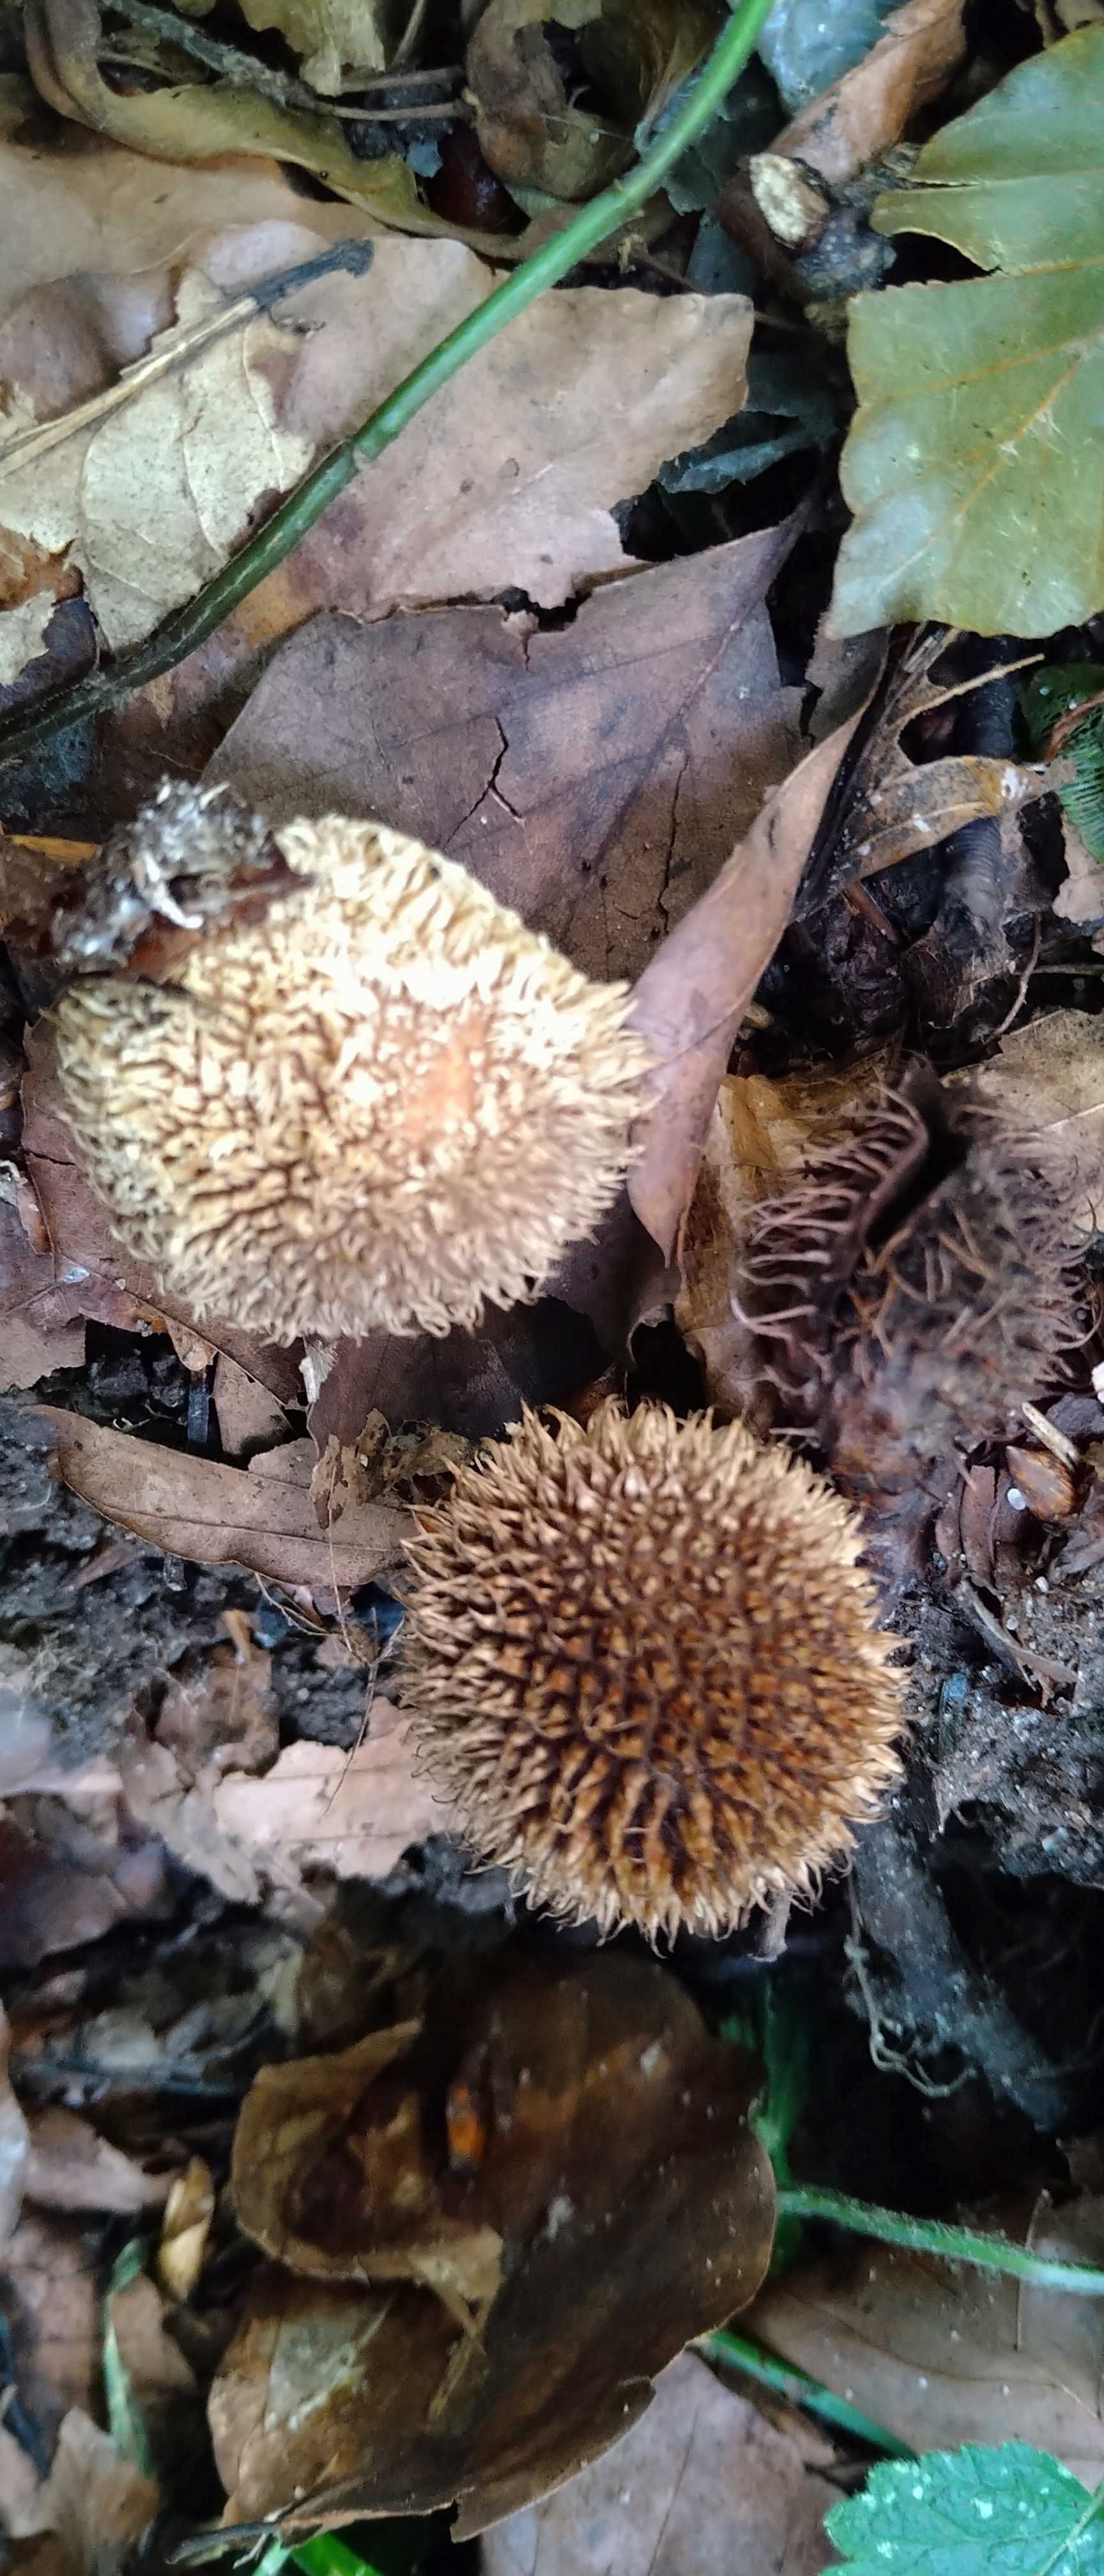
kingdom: Fungi
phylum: Basidiomycota
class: Agaricomycetes
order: Agaricales
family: Lycoperdaceae
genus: Lycoperdon
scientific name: Lycoperdon echinatum
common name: pindsvine-støvbold
